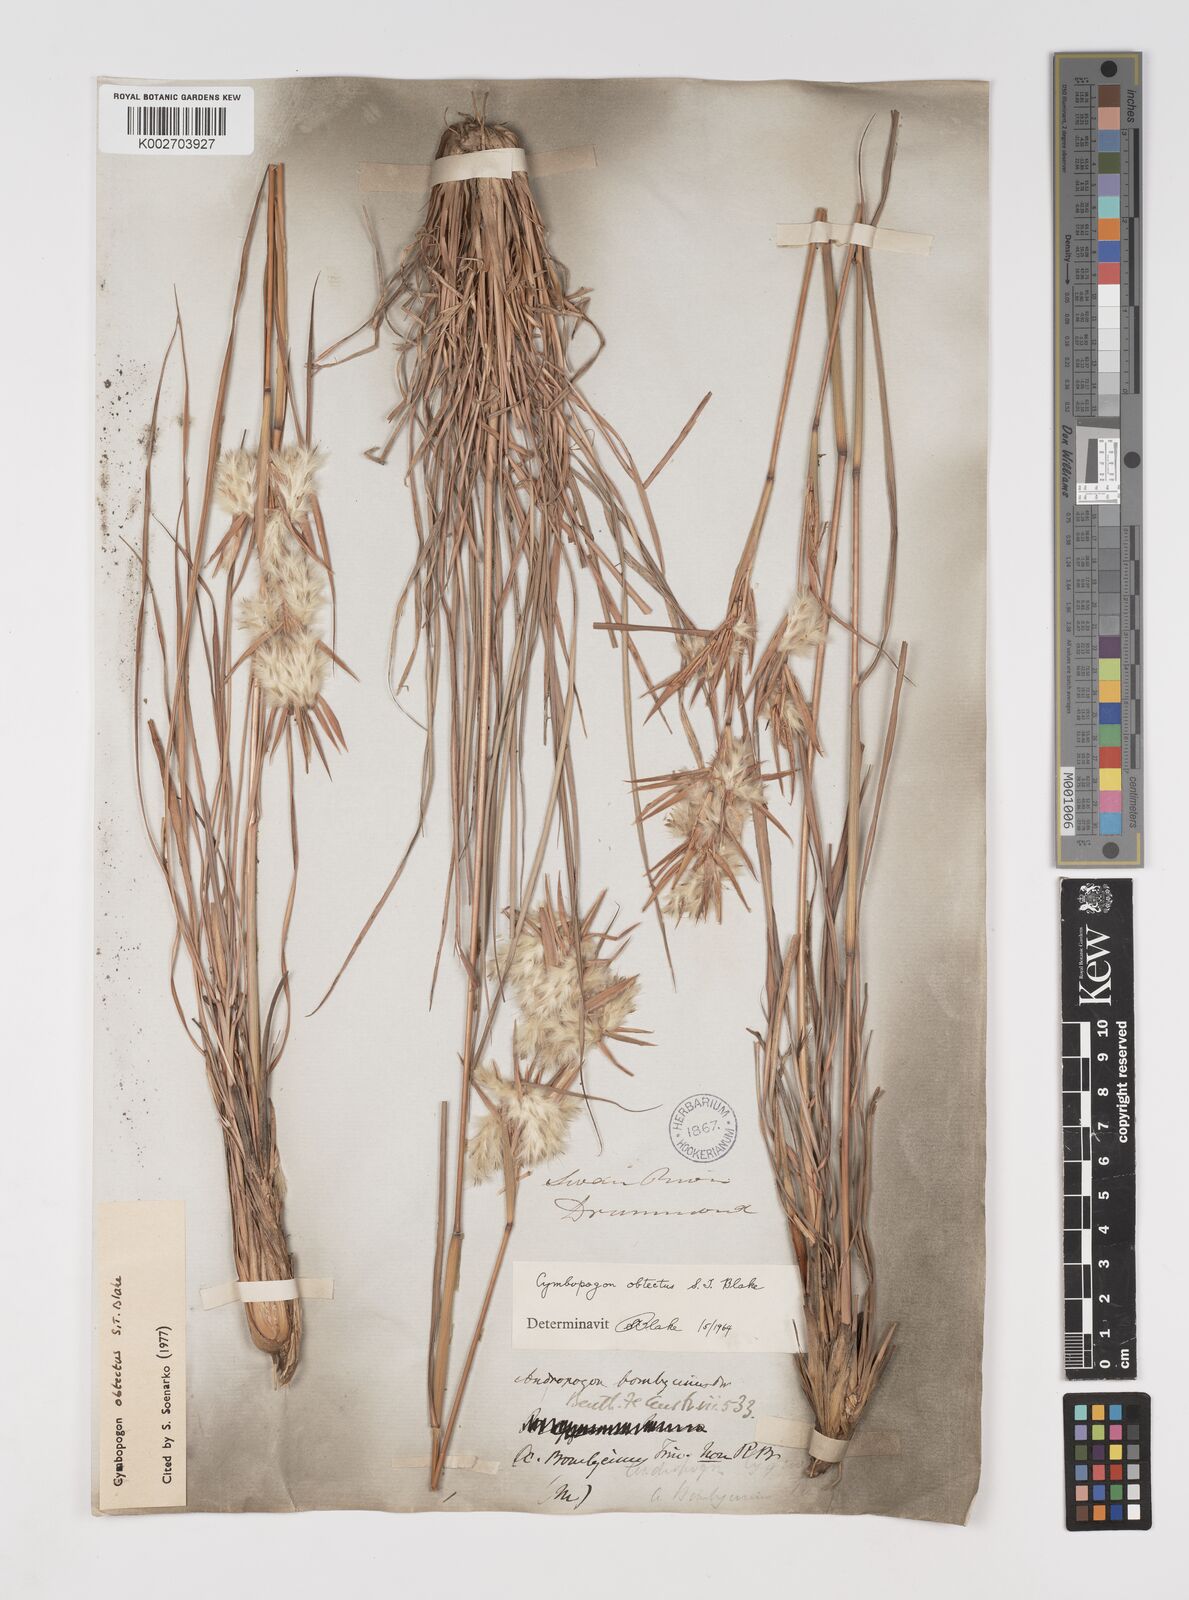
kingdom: Plantae
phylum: Tracheophyta
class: Liliopsida
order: Poales
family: Poaceae
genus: Cymbopogon
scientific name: Cymbopogon obtectus
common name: Silky heads
